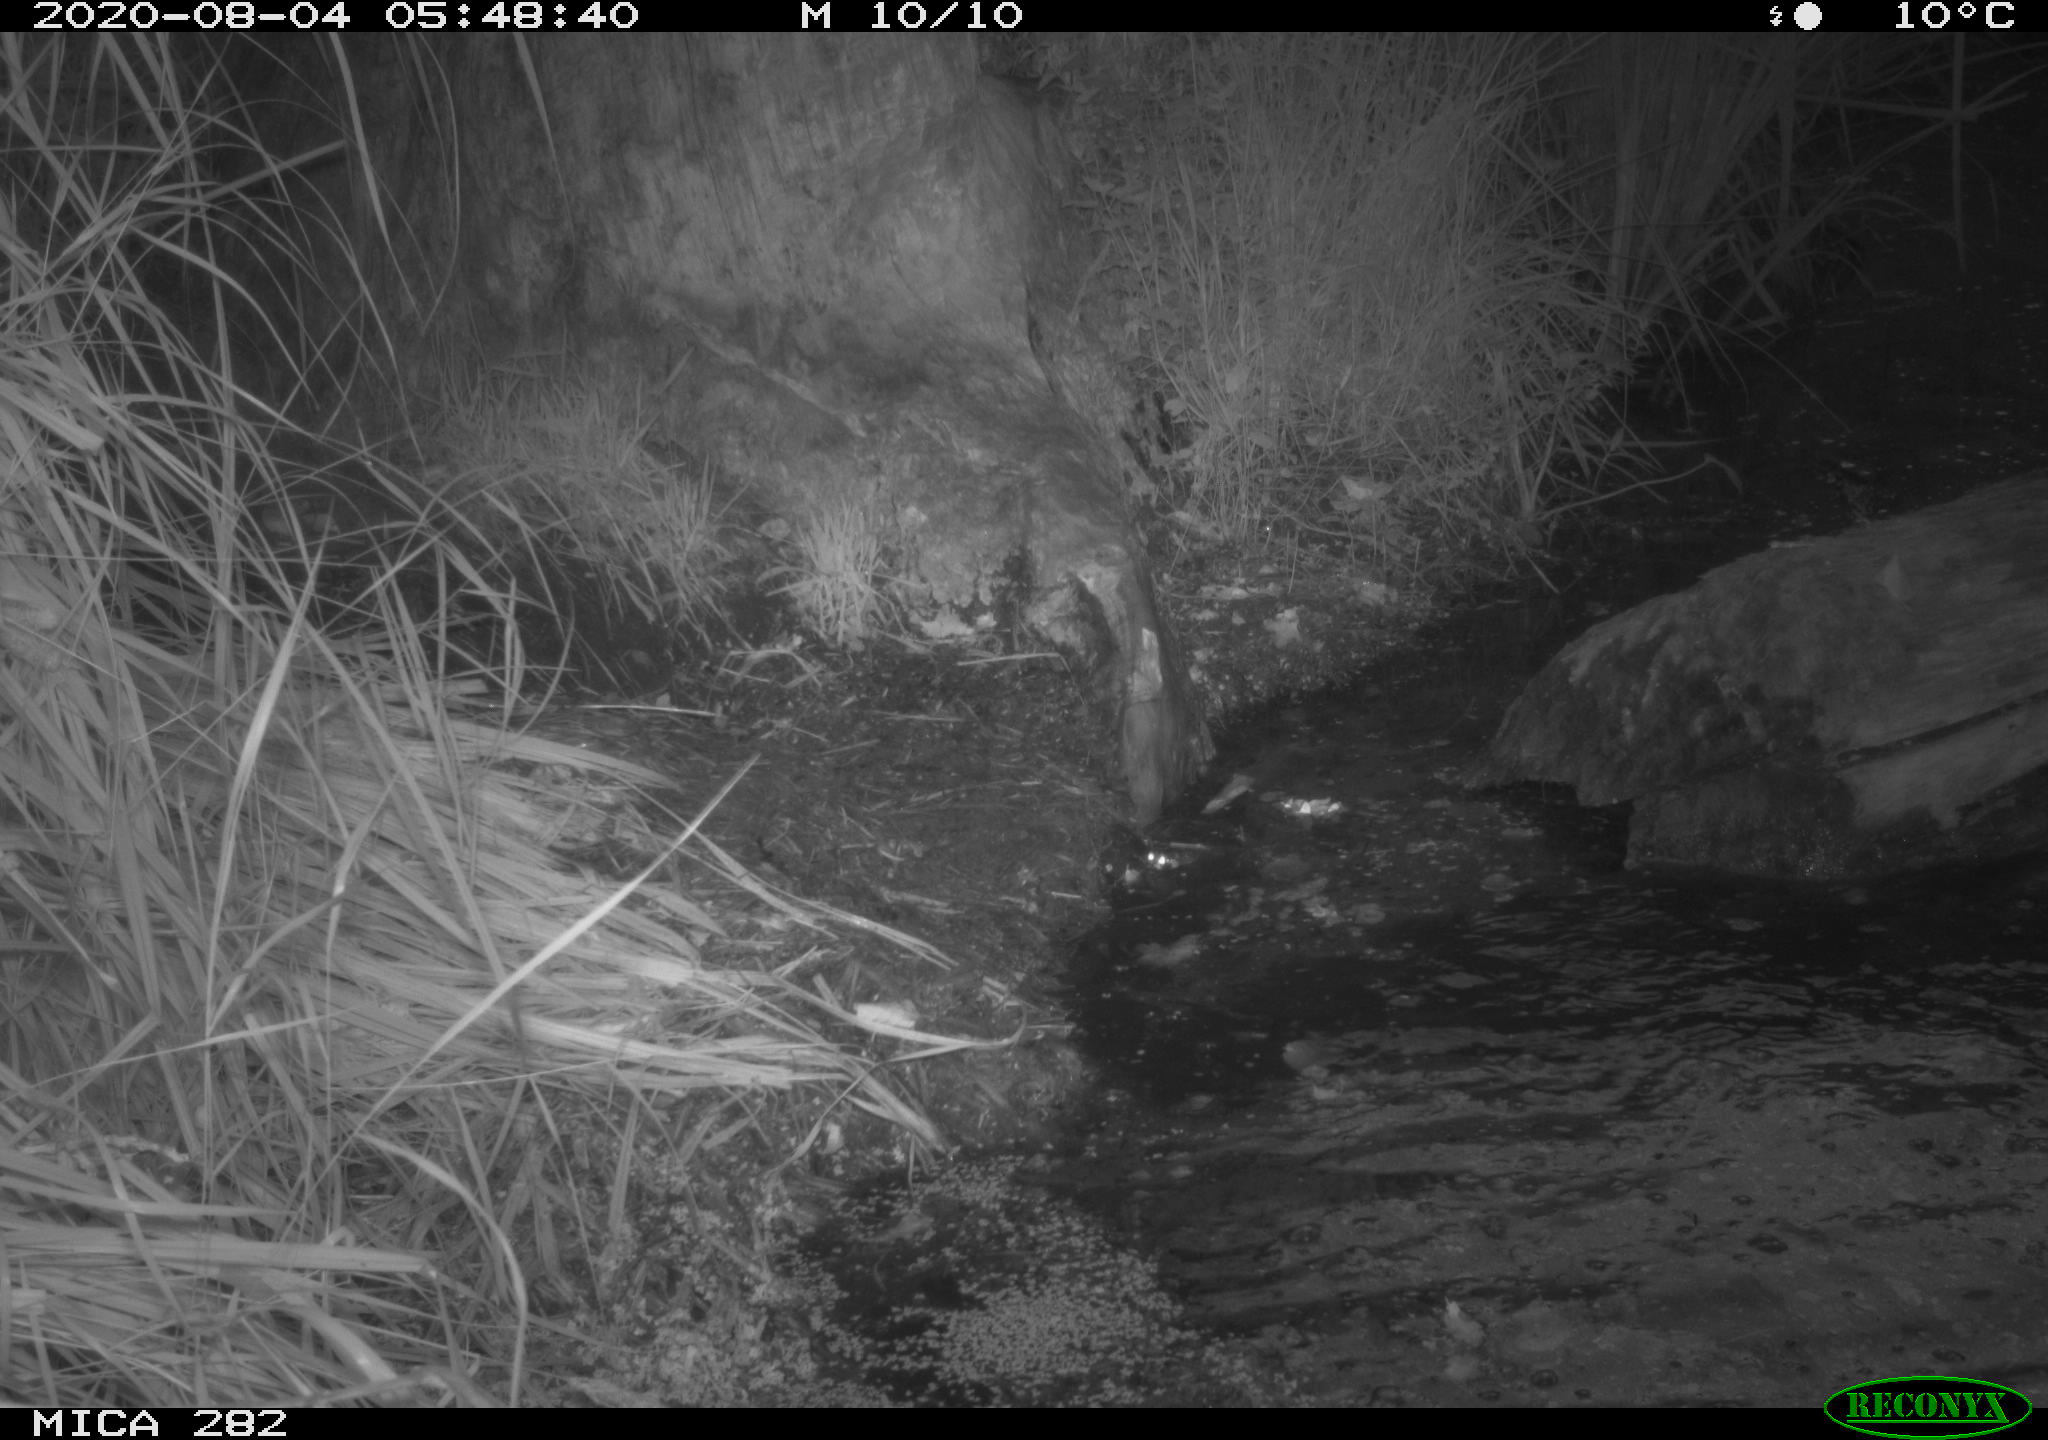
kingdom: Animalia
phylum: Chordata
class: Mammalia
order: Rodentia
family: Castoridae
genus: Castor
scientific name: Castor fiber
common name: Eurasian beaver
